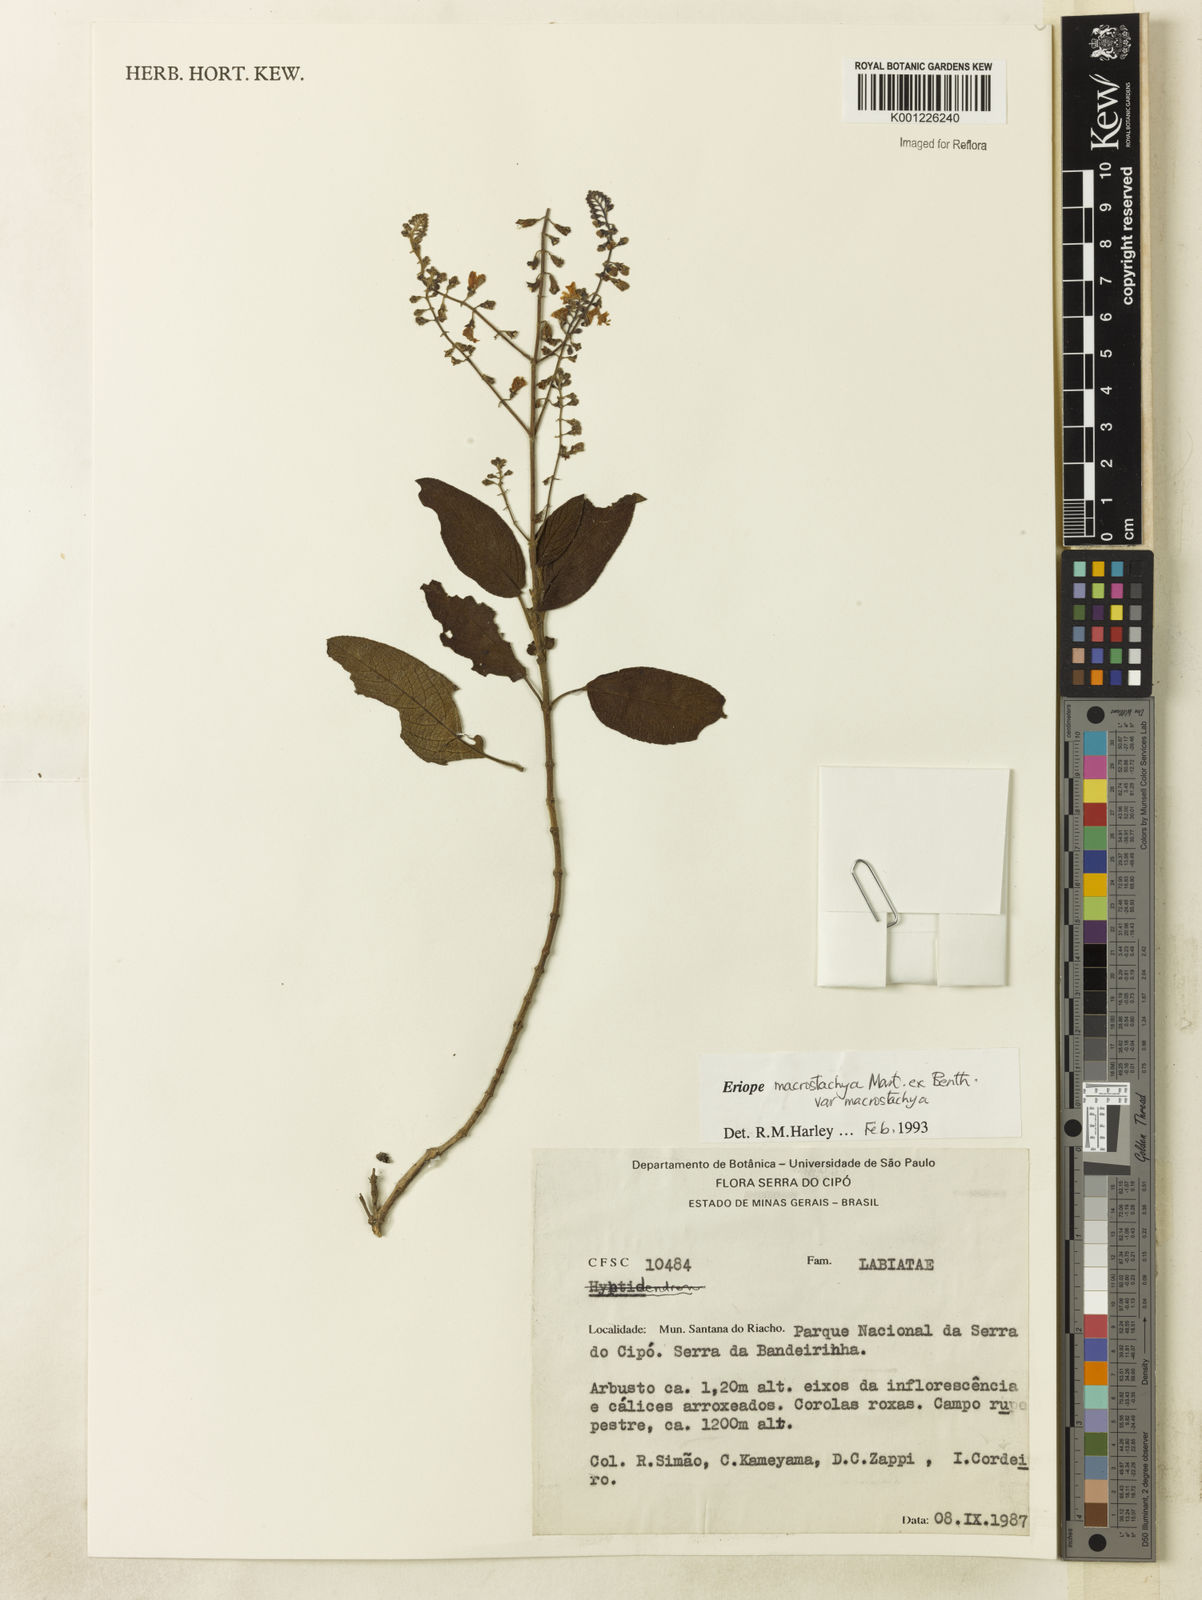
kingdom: Plantae
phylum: Tracheophyta
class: Magnoliopsida
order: Lamiales
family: Lamiaceae
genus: Eriope
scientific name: Eriope macrostachya
